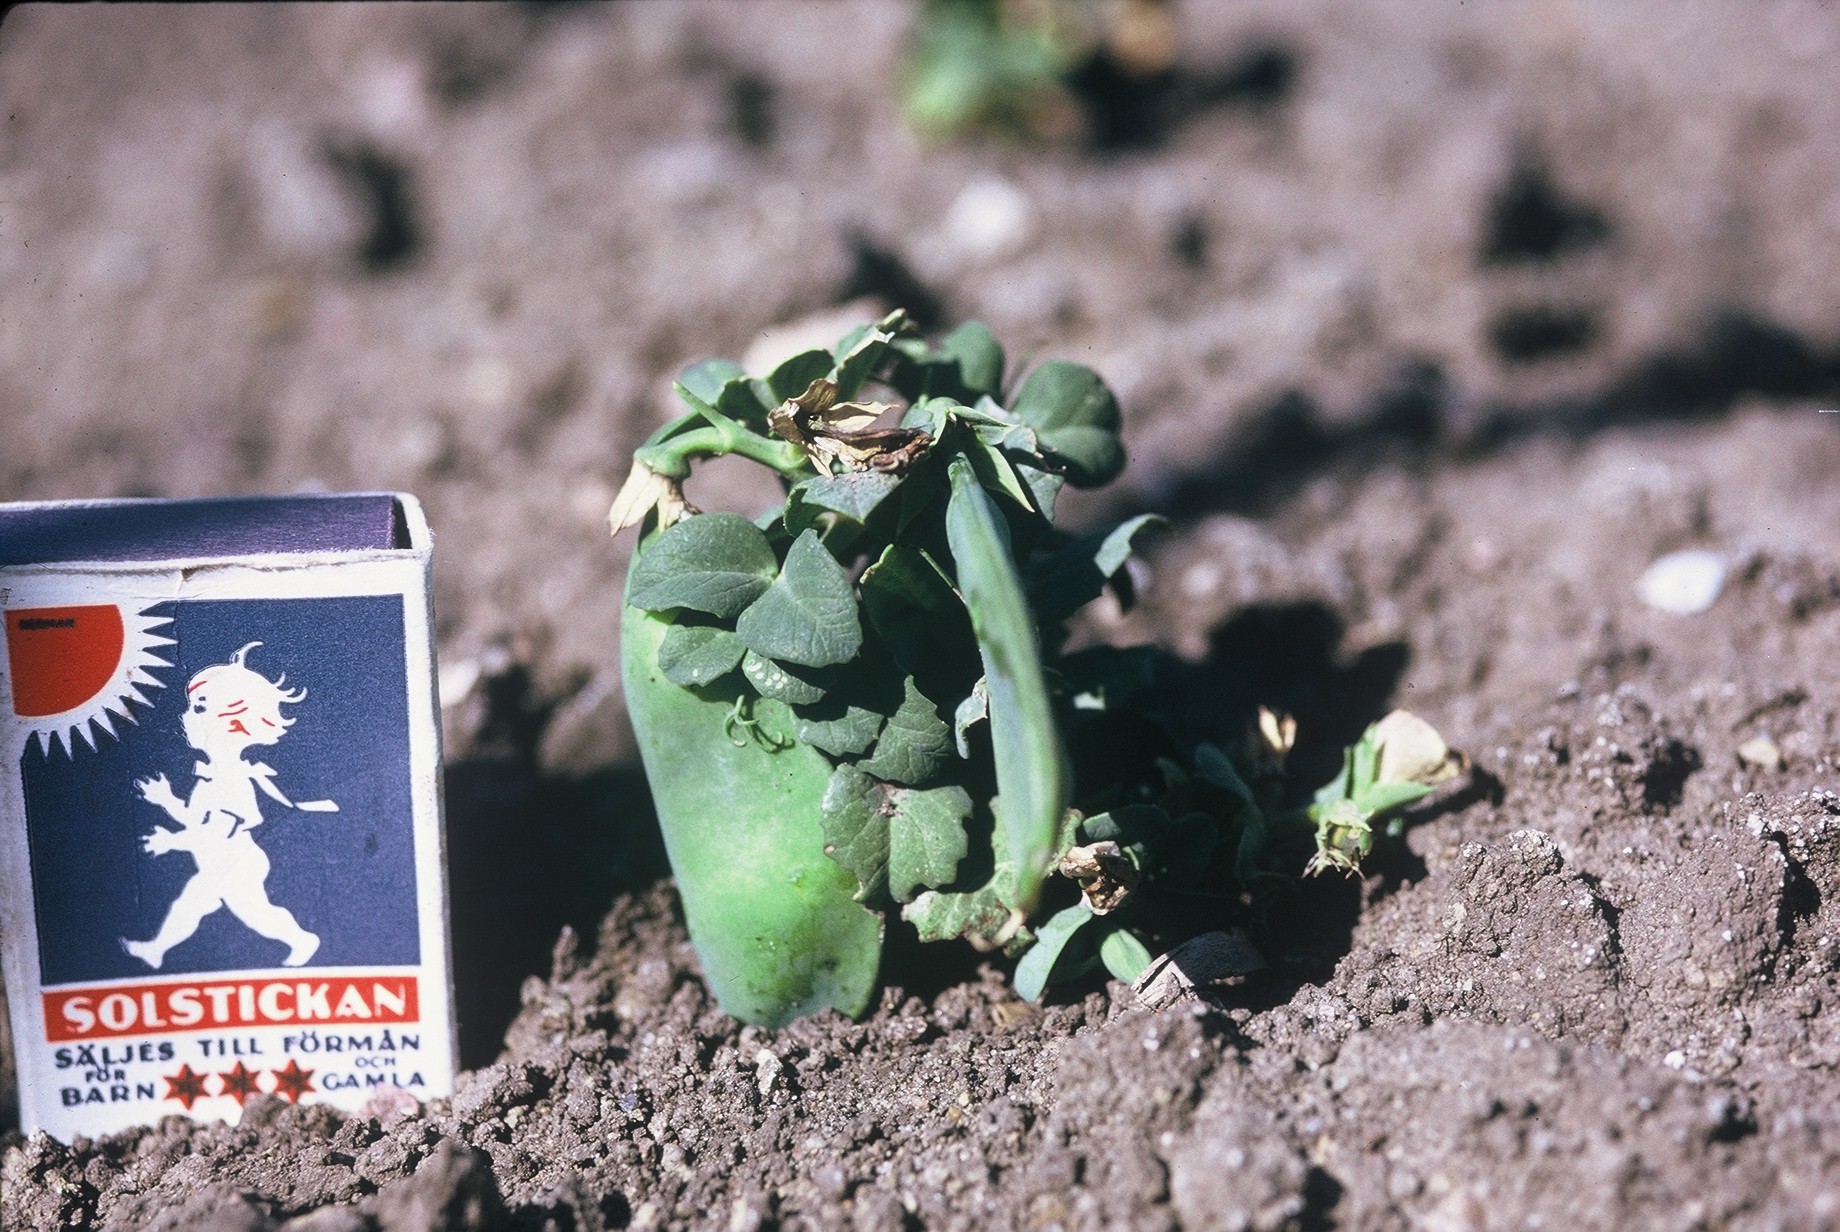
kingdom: Plantae
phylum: Tracheophyta
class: Magnoliopsida
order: Fabales
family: Fabaceae
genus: Lathyrus
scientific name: Lathyrus oleraceus
